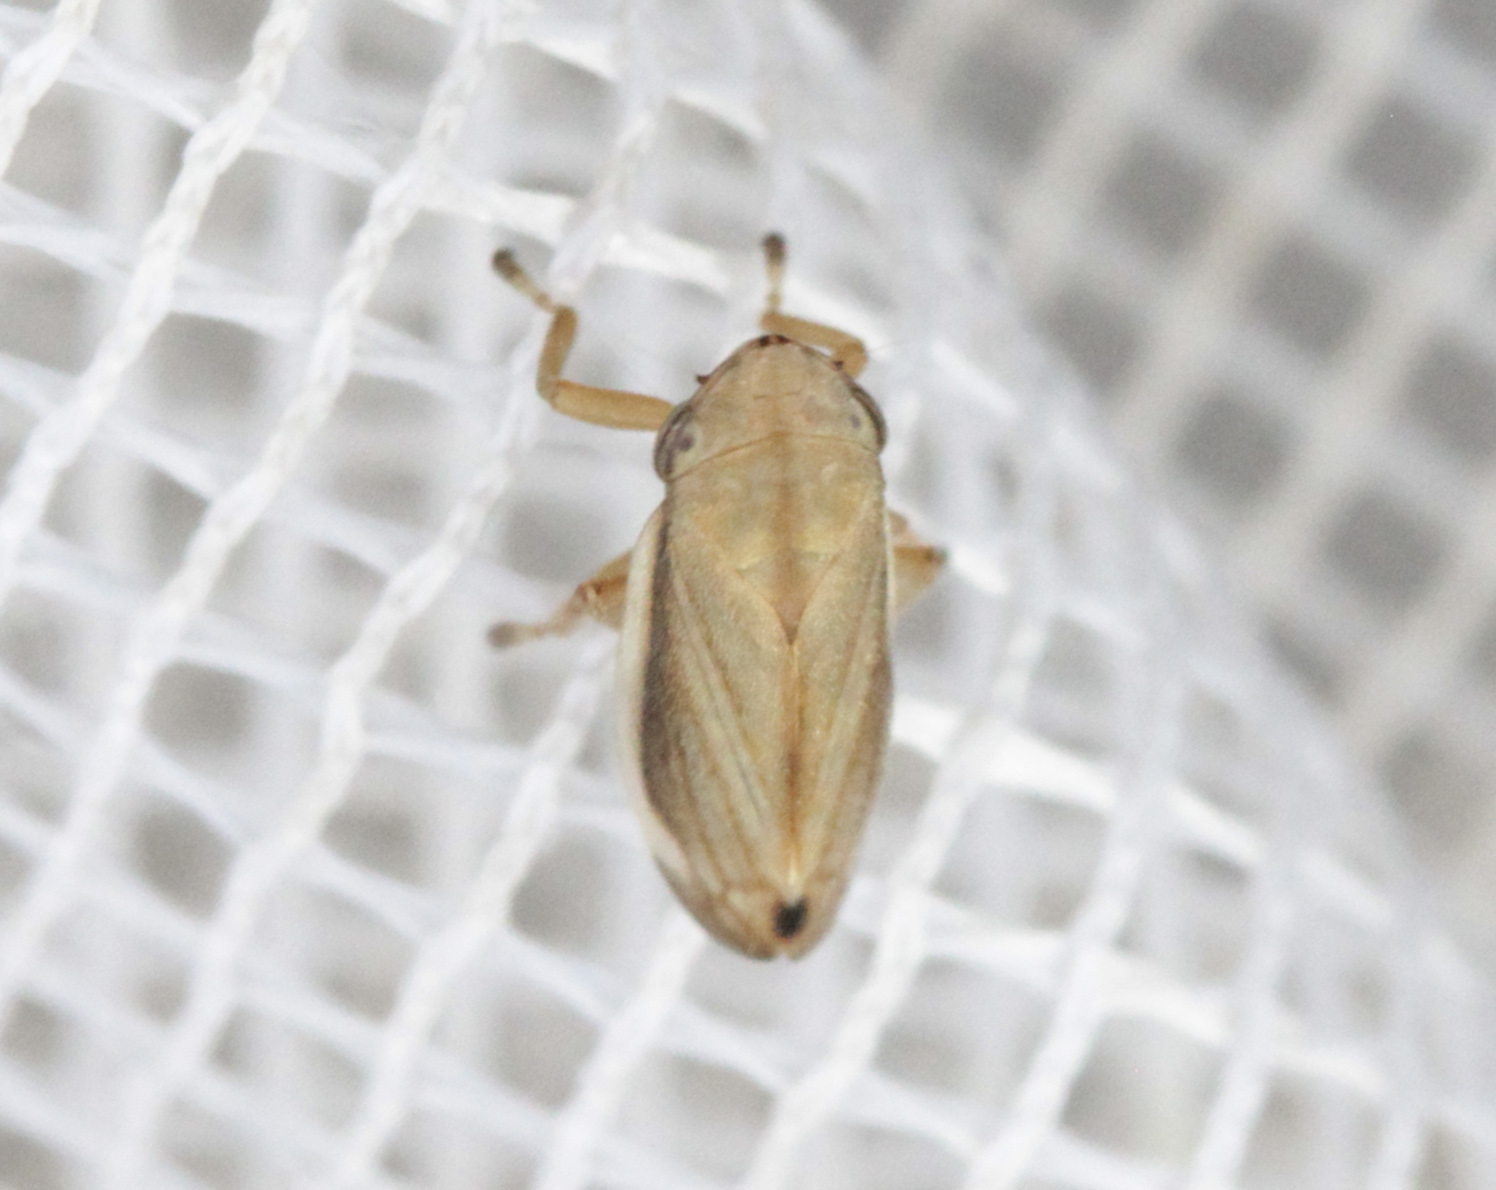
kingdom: Animalia
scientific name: Animalia
